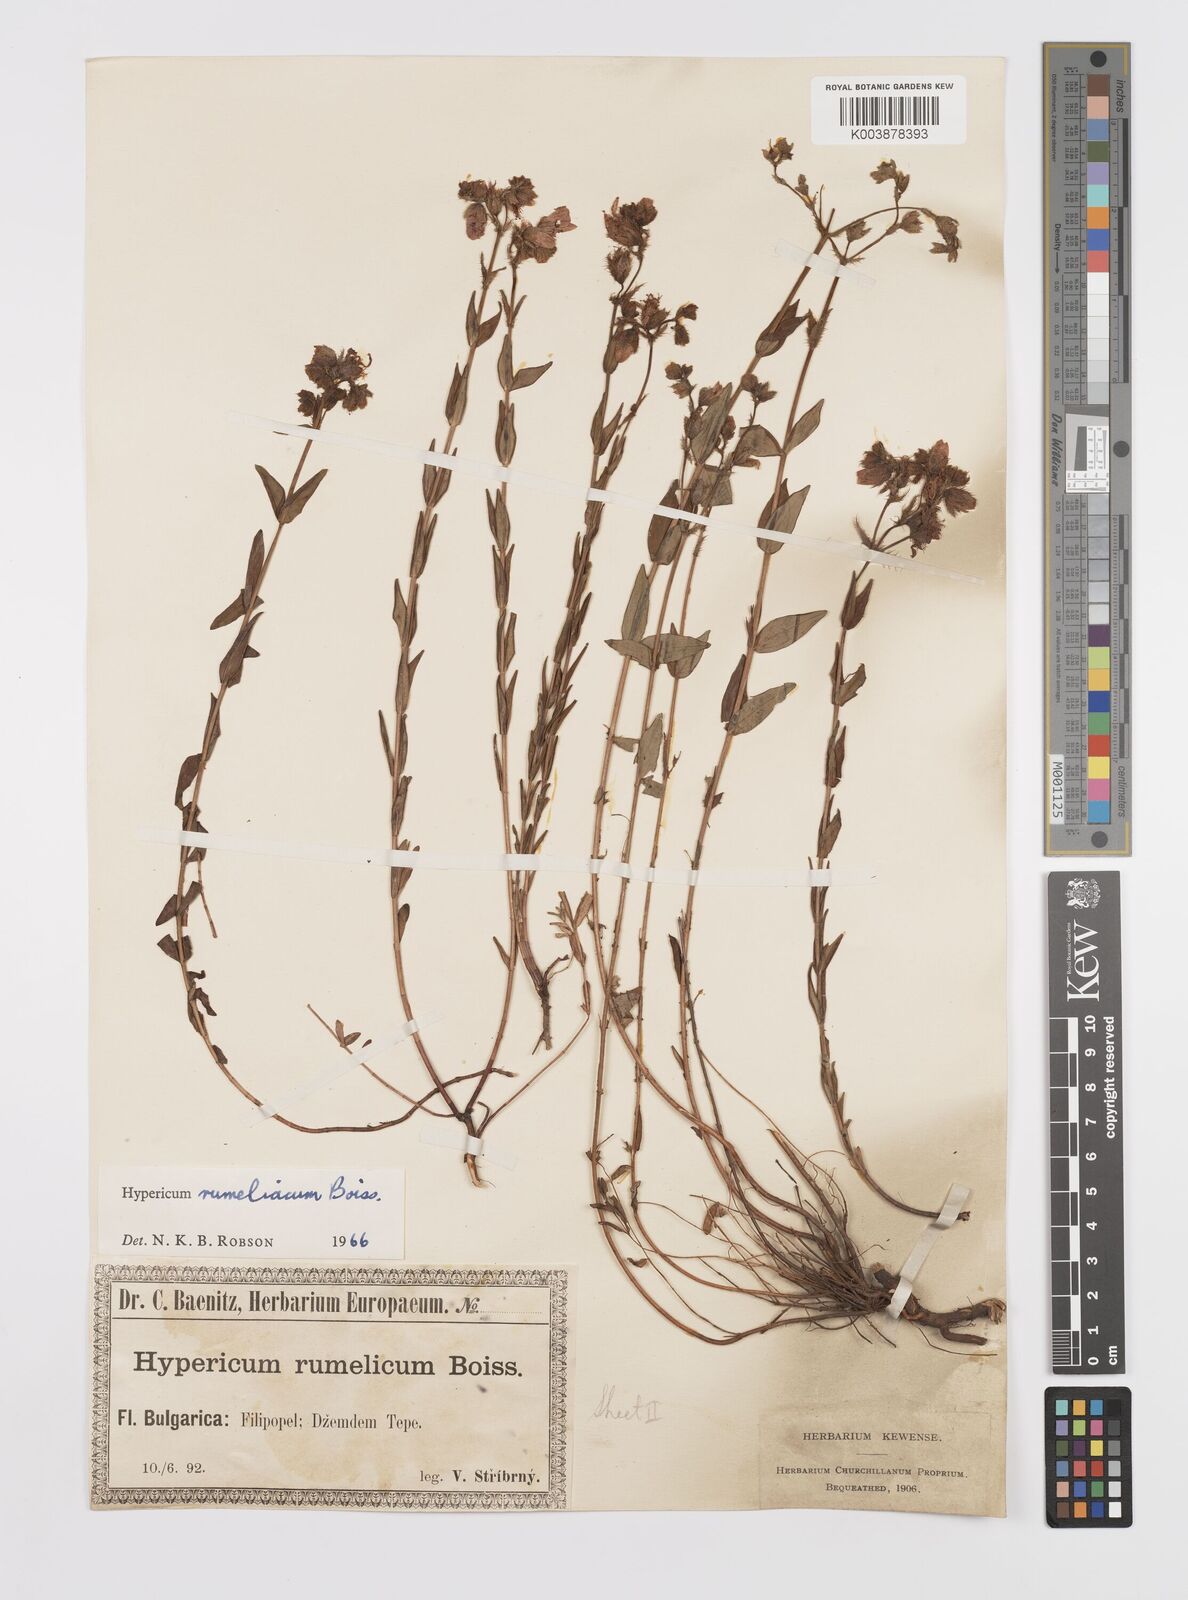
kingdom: Plantae
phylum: Tracheophyta
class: Magnoliopsida
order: Malpighiales
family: Hypericaceae
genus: Hypericum
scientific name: Hypericum rumeliacum
